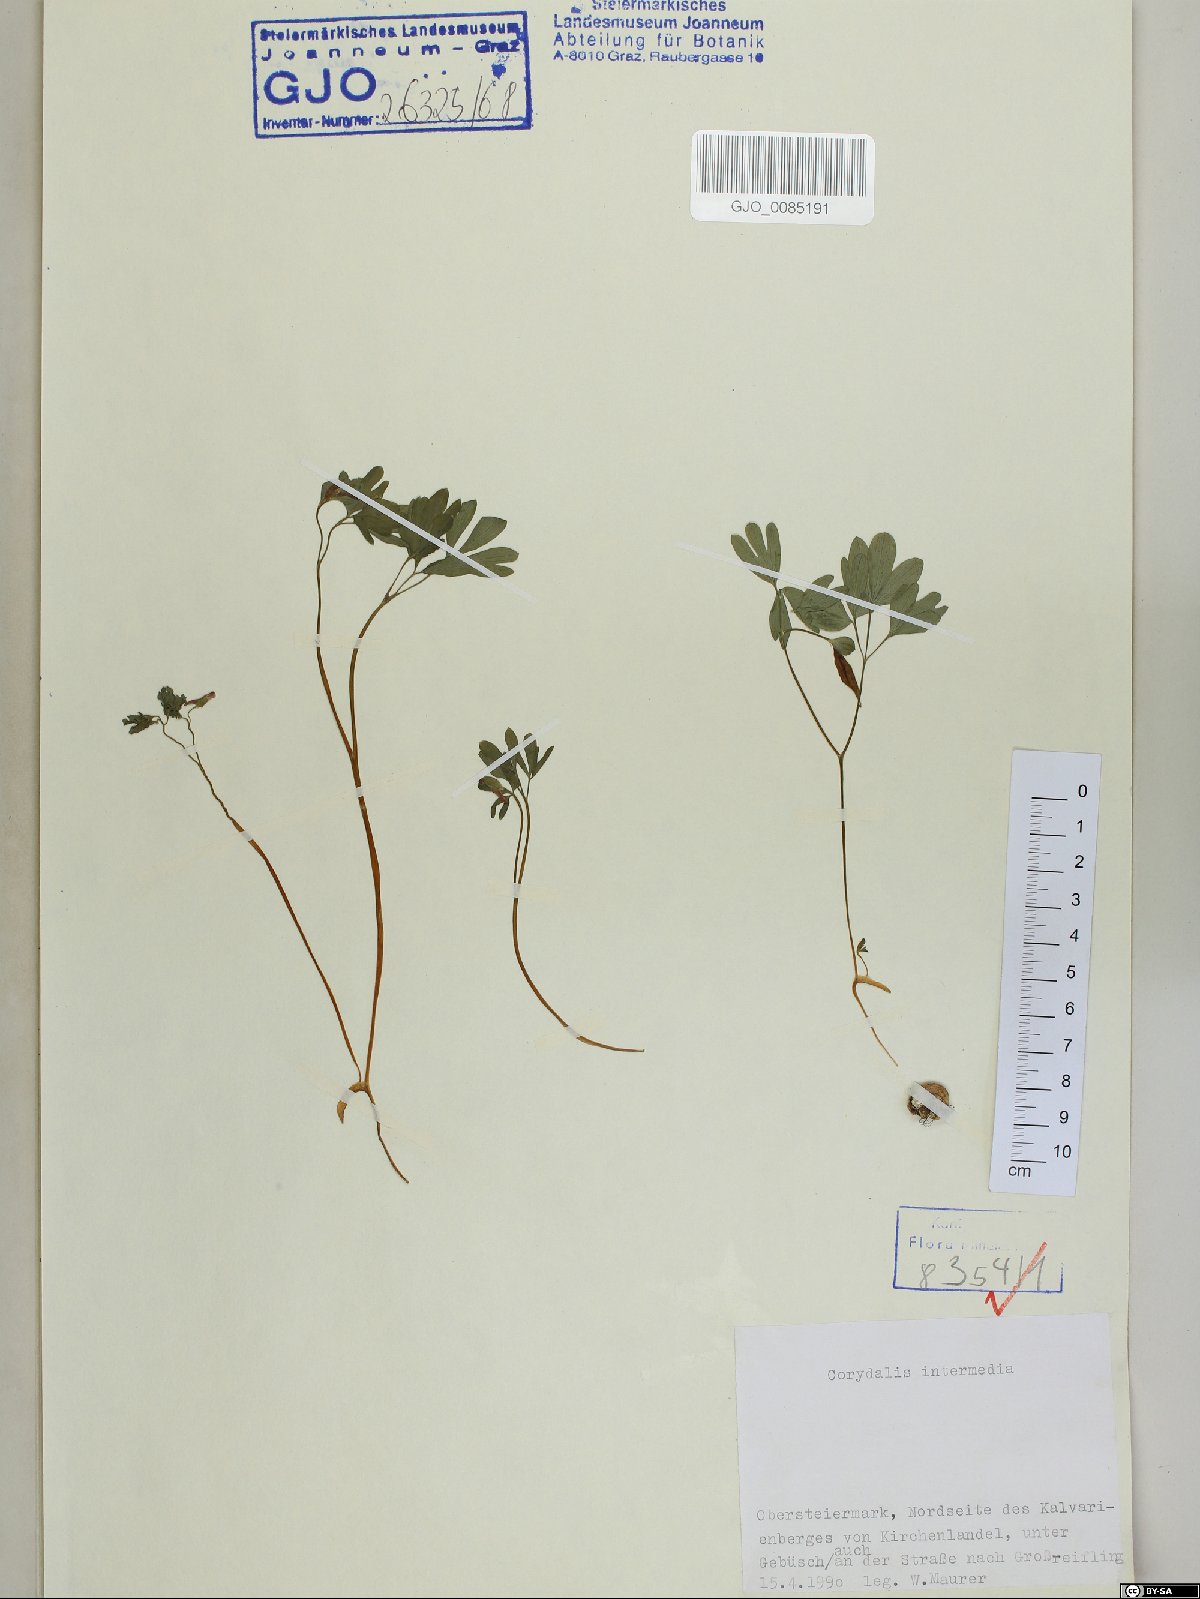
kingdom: Plantae
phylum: Tracheophyta
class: Magnoliopsida
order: Ranunculales
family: Papaveraceae
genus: Corydalis
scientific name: Corydalis intermedia
